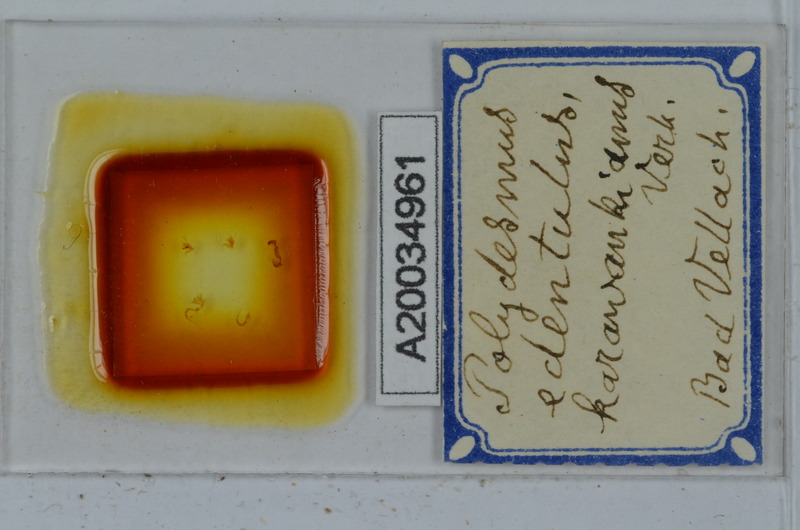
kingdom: Animalia
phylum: Arthropoda
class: Diplopoda
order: Polydesmida
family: Polydesmidae
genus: Polydesmus
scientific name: Polydesmus edentulus
